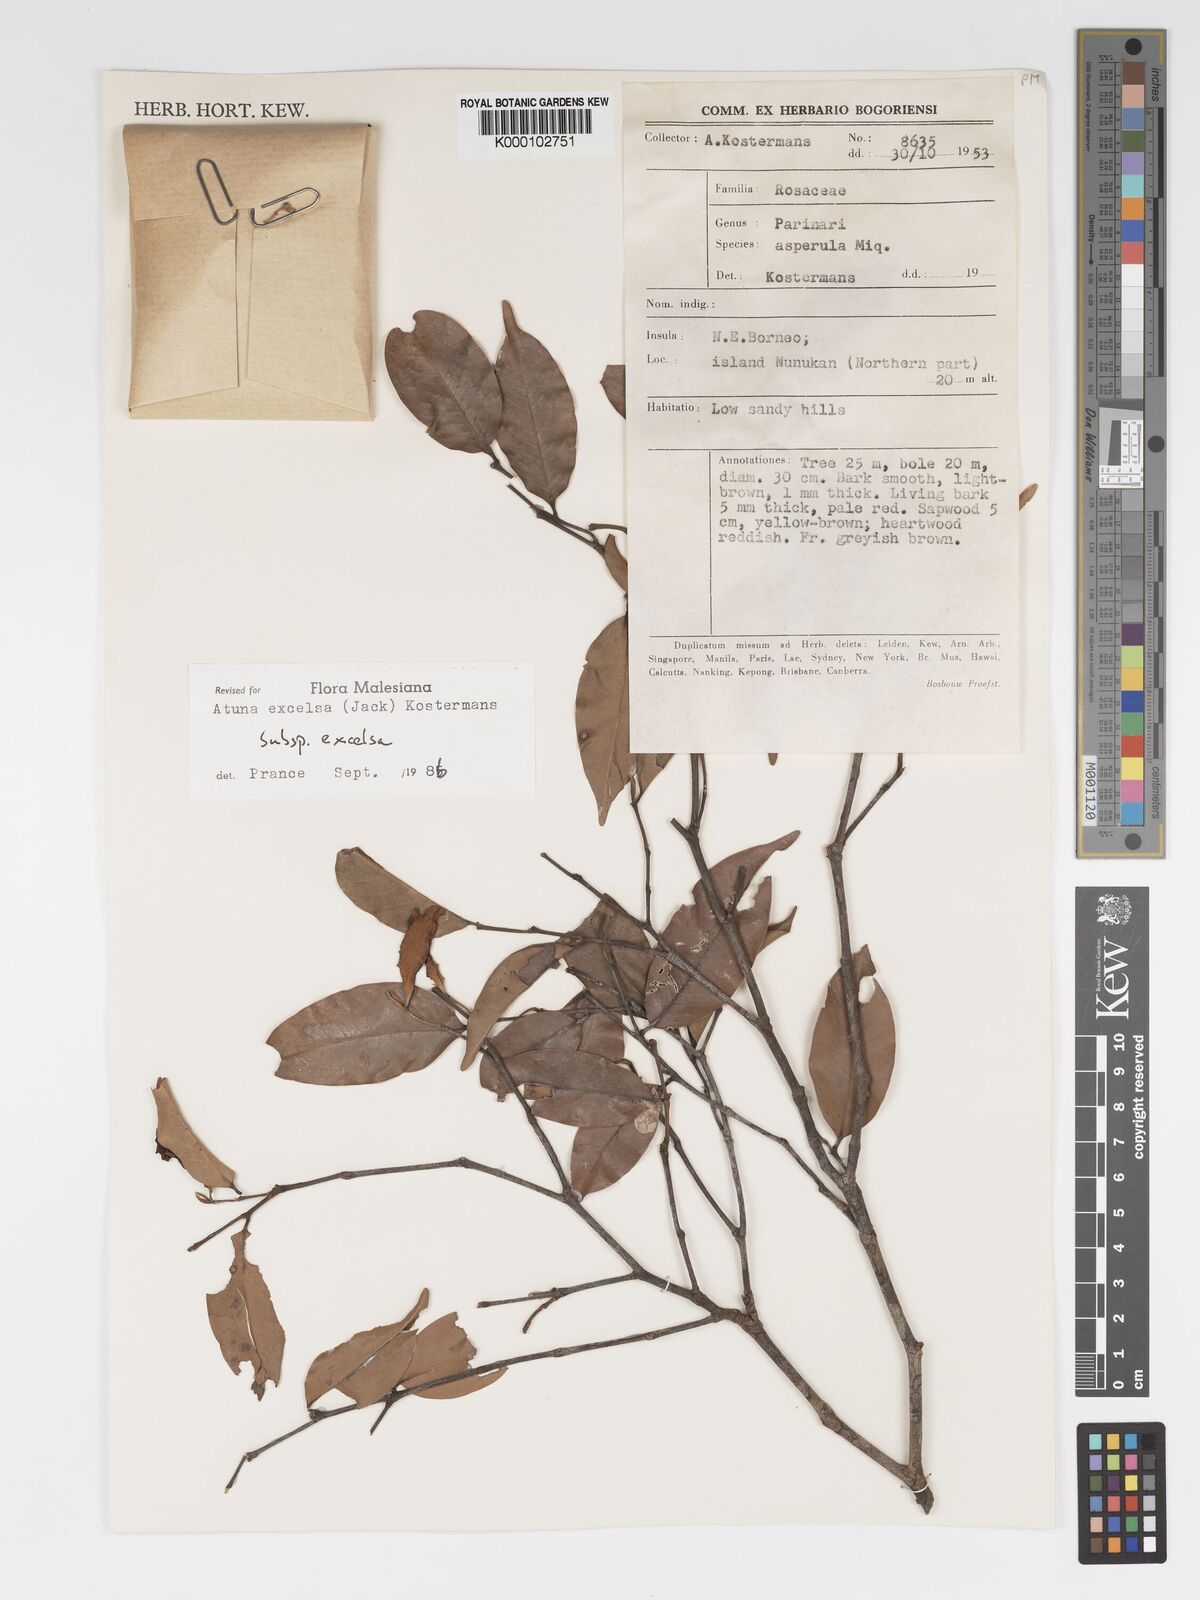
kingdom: Plantae
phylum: Tracheophyta
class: Magnoliopsida
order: Malpighiales
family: Chrysobalanaceae
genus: Atuna
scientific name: Atuna excelsa
